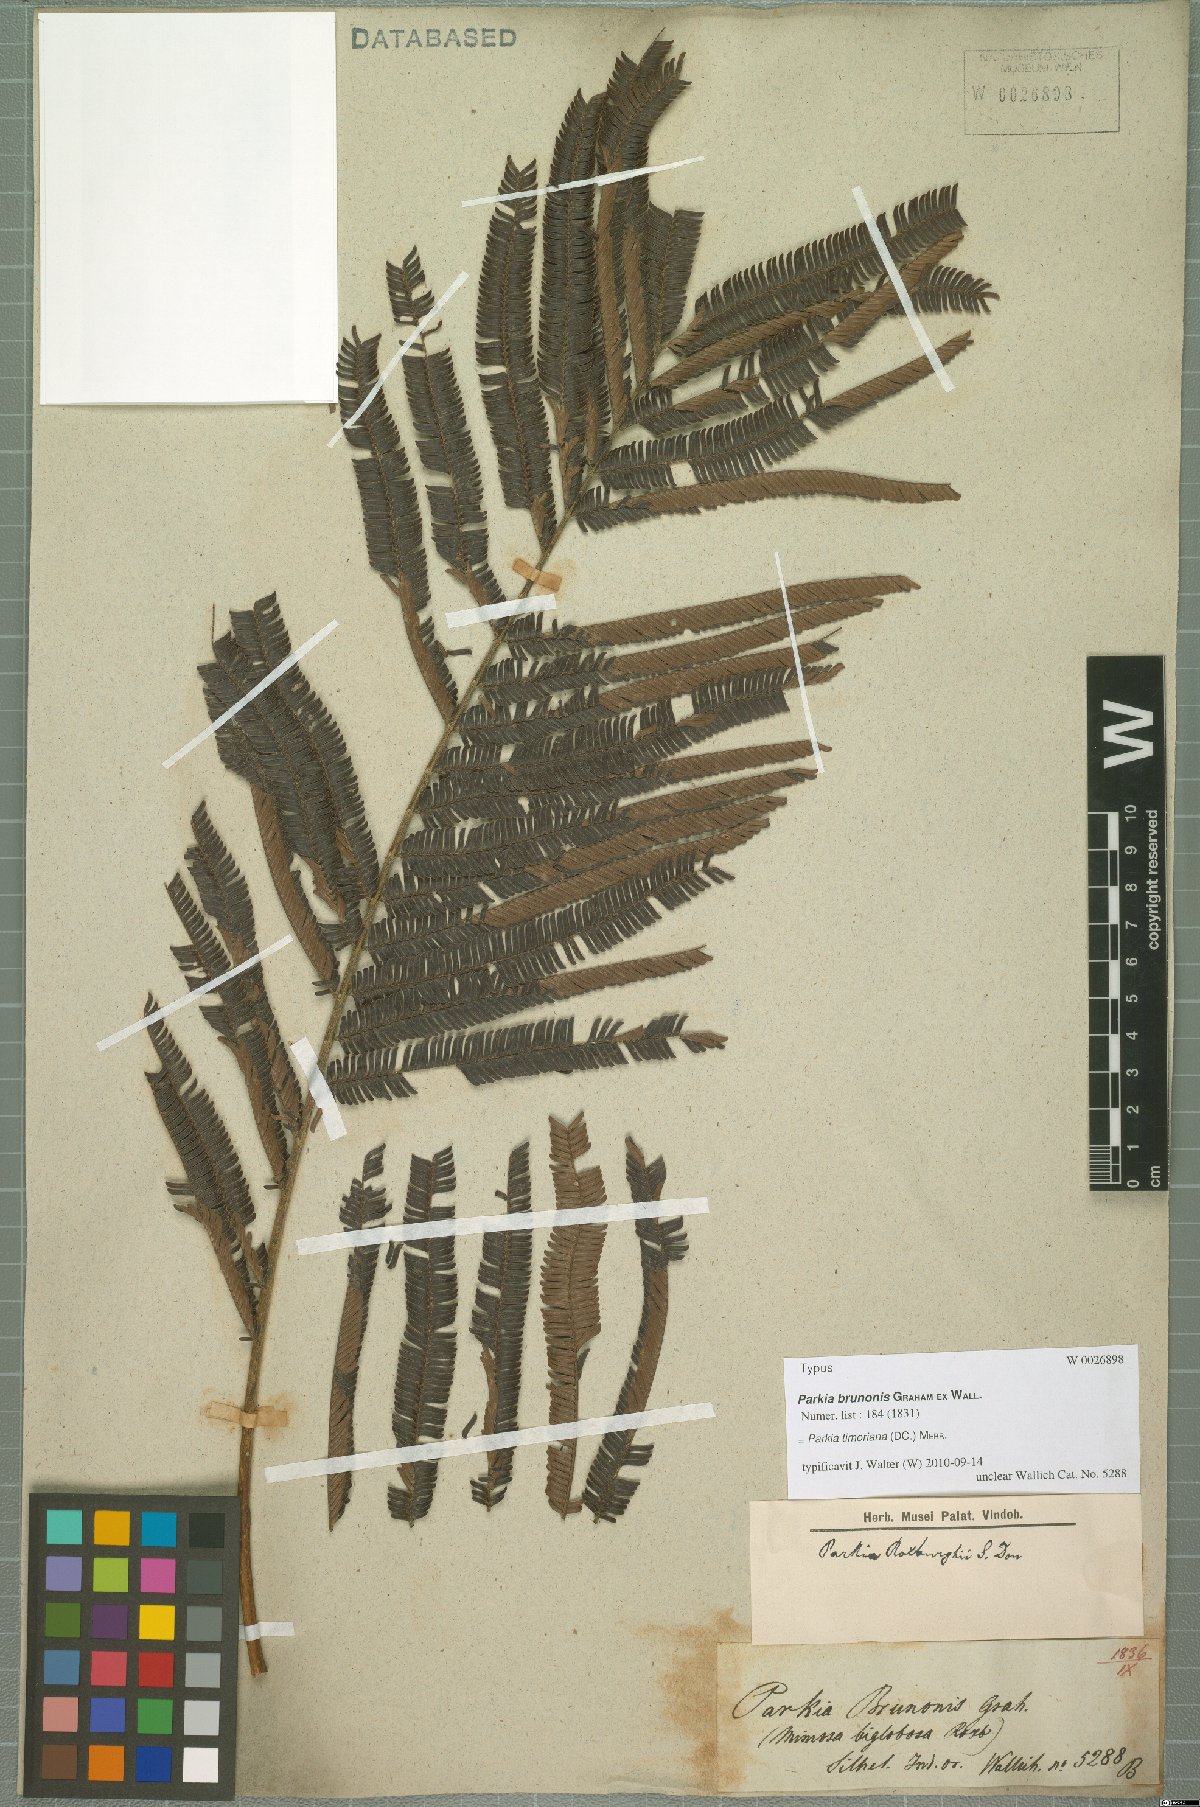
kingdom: Plantae
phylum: Tracheophyta
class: Magnoliopsida
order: Fabales
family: Fabaceae
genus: Parkia
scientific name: Parkia timoriana
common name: Legume
